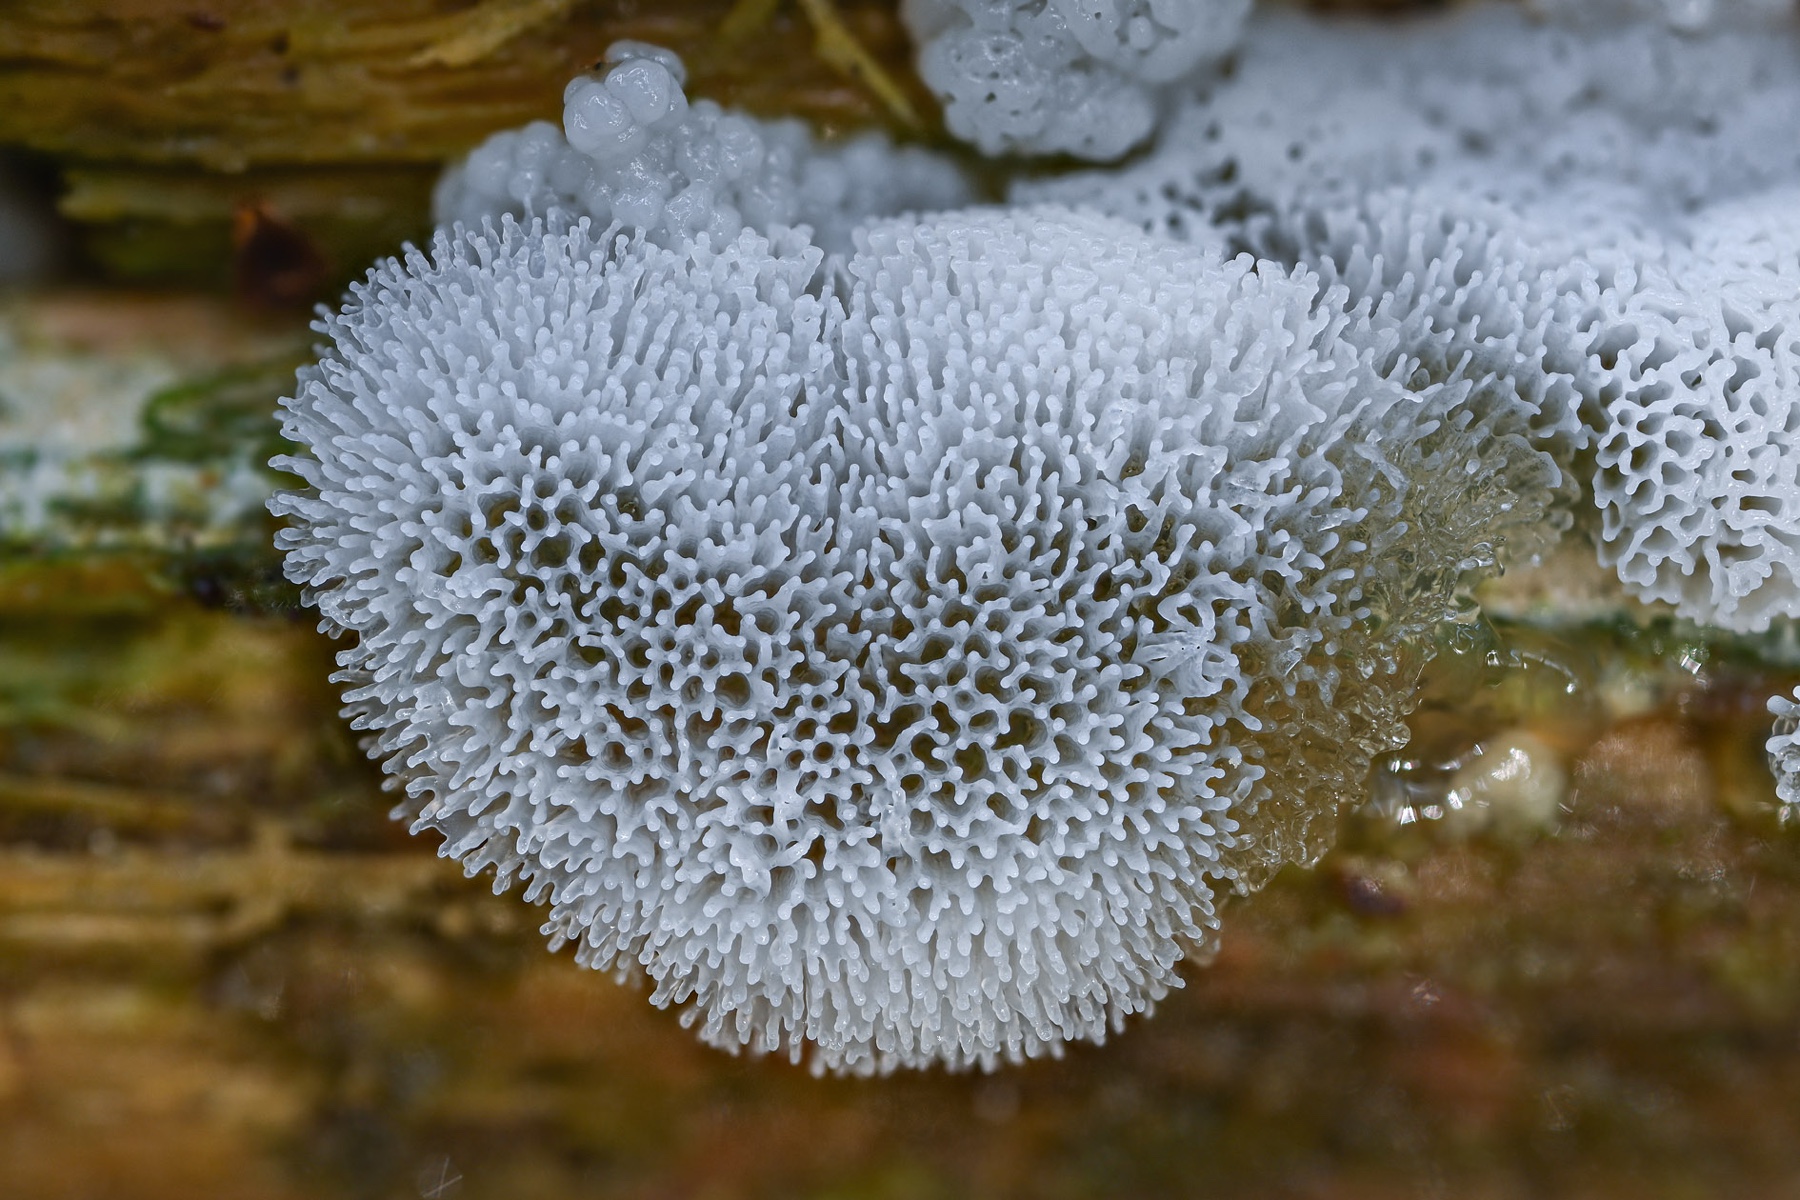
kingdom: Protozoa
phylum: Mycetozoa
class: Protosteliomycetes
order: Ceratiomyxales
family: Ceratiomyxaceae
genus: Ceratiomyxa
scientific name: Ceratiomyxa fruticulosa
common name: Honeycomb coral slime mold
